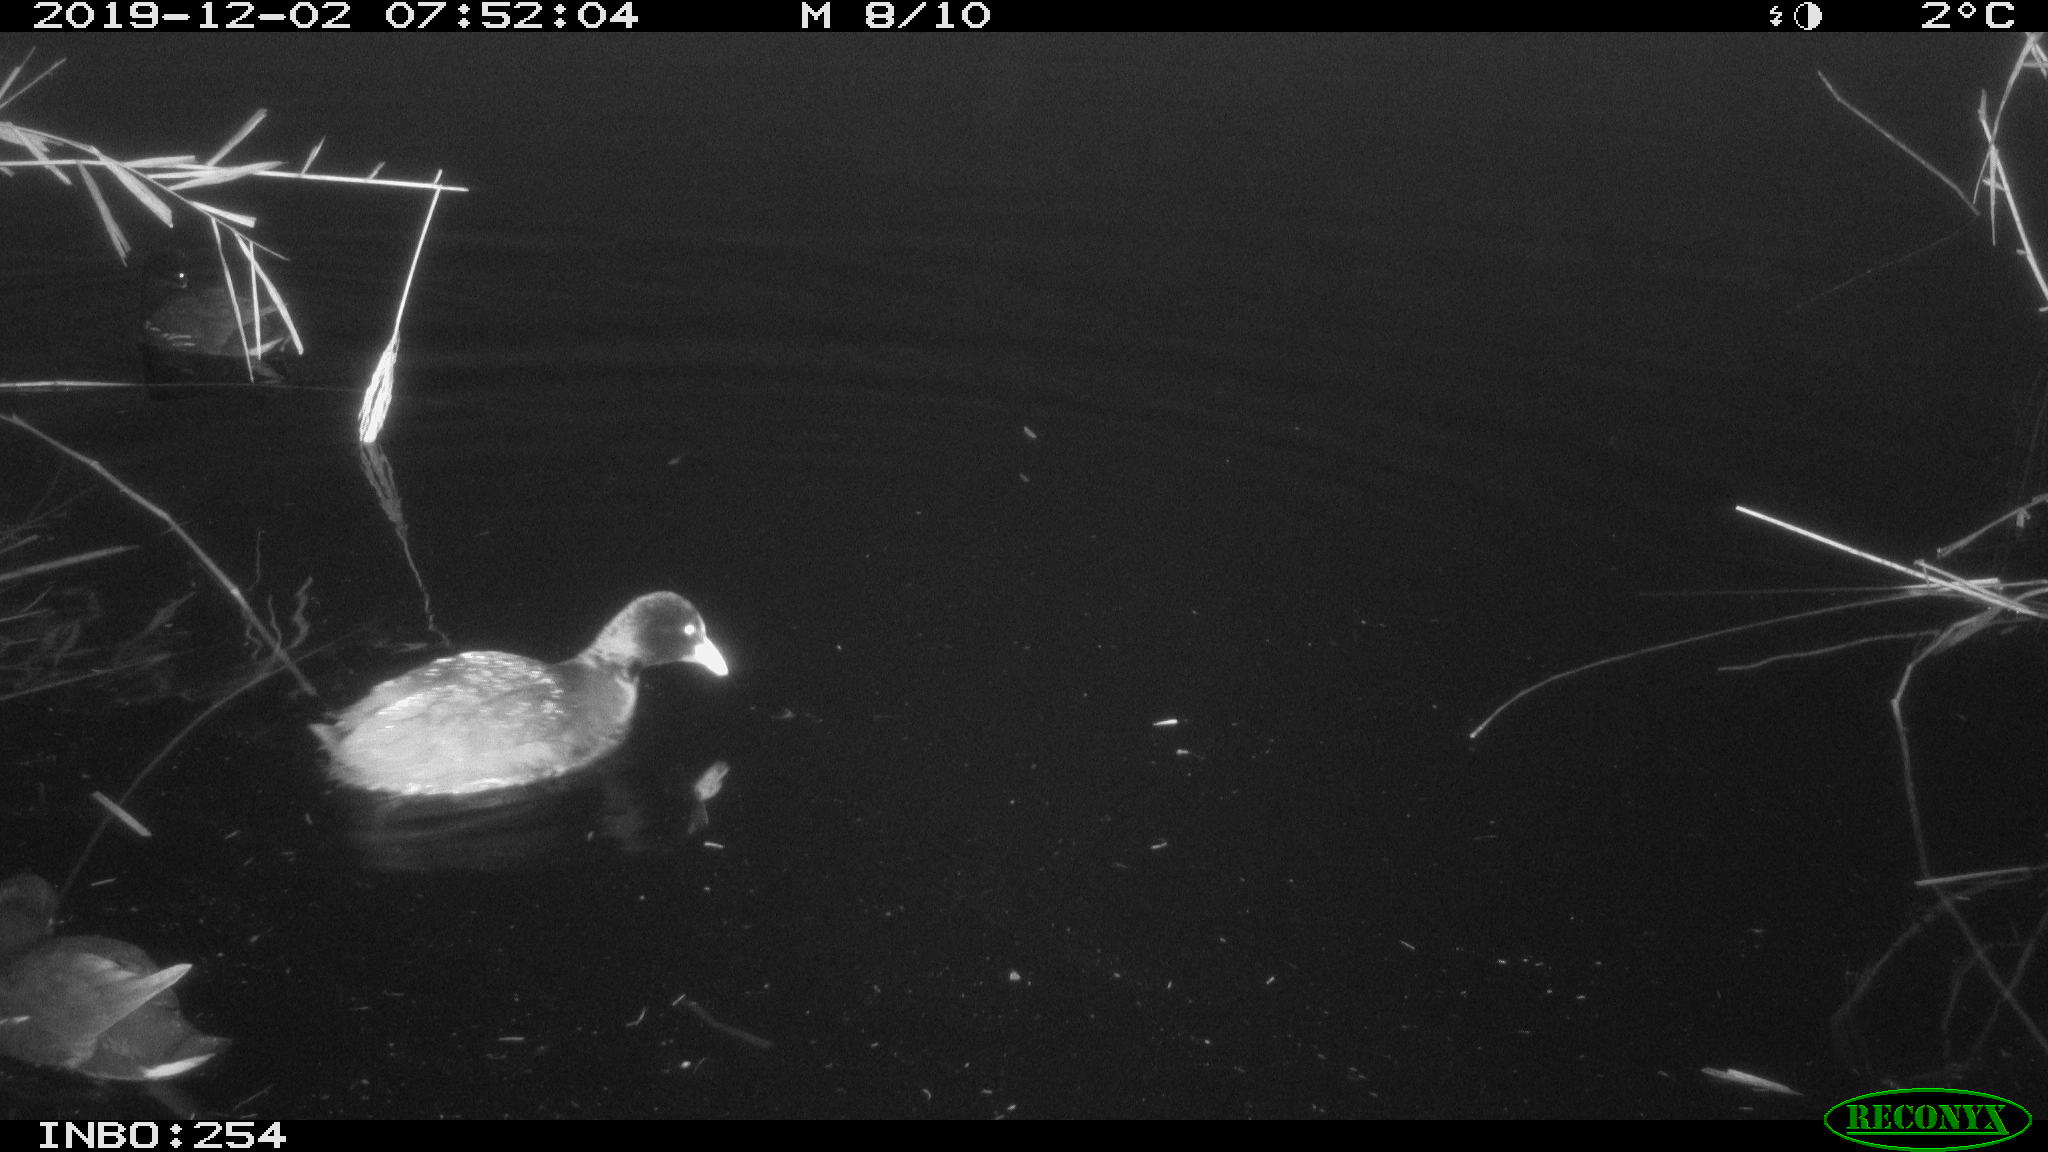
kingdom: Animalia
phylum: Chordata
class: Aves
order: Gruiformes
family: Rallidae
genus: Gallinula
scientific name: Gallinula chloropus
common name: Common moorhen
